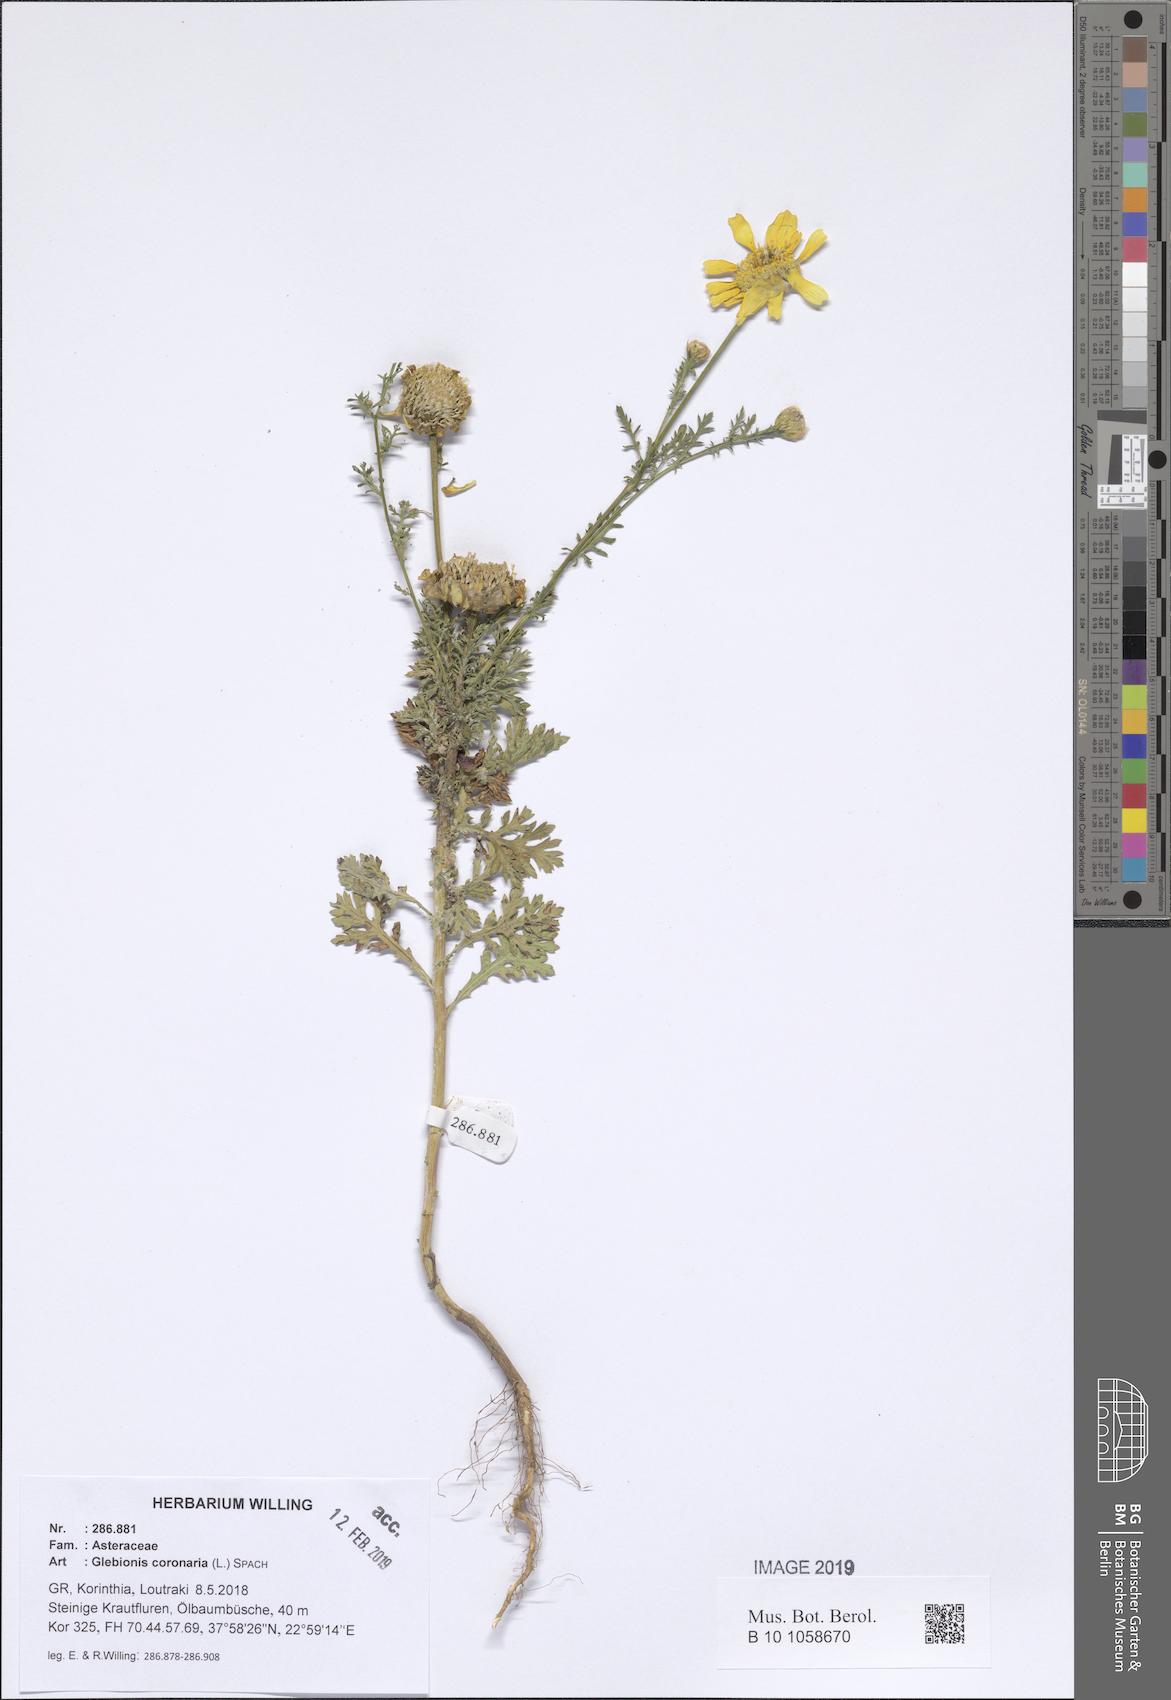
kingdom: Plantae
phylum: Tracheophyta
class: Magnoliopsida
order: Asterales
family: Asteraceae
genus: Glebionis
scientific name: Glebionis coronaria
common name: Crowndaisy
